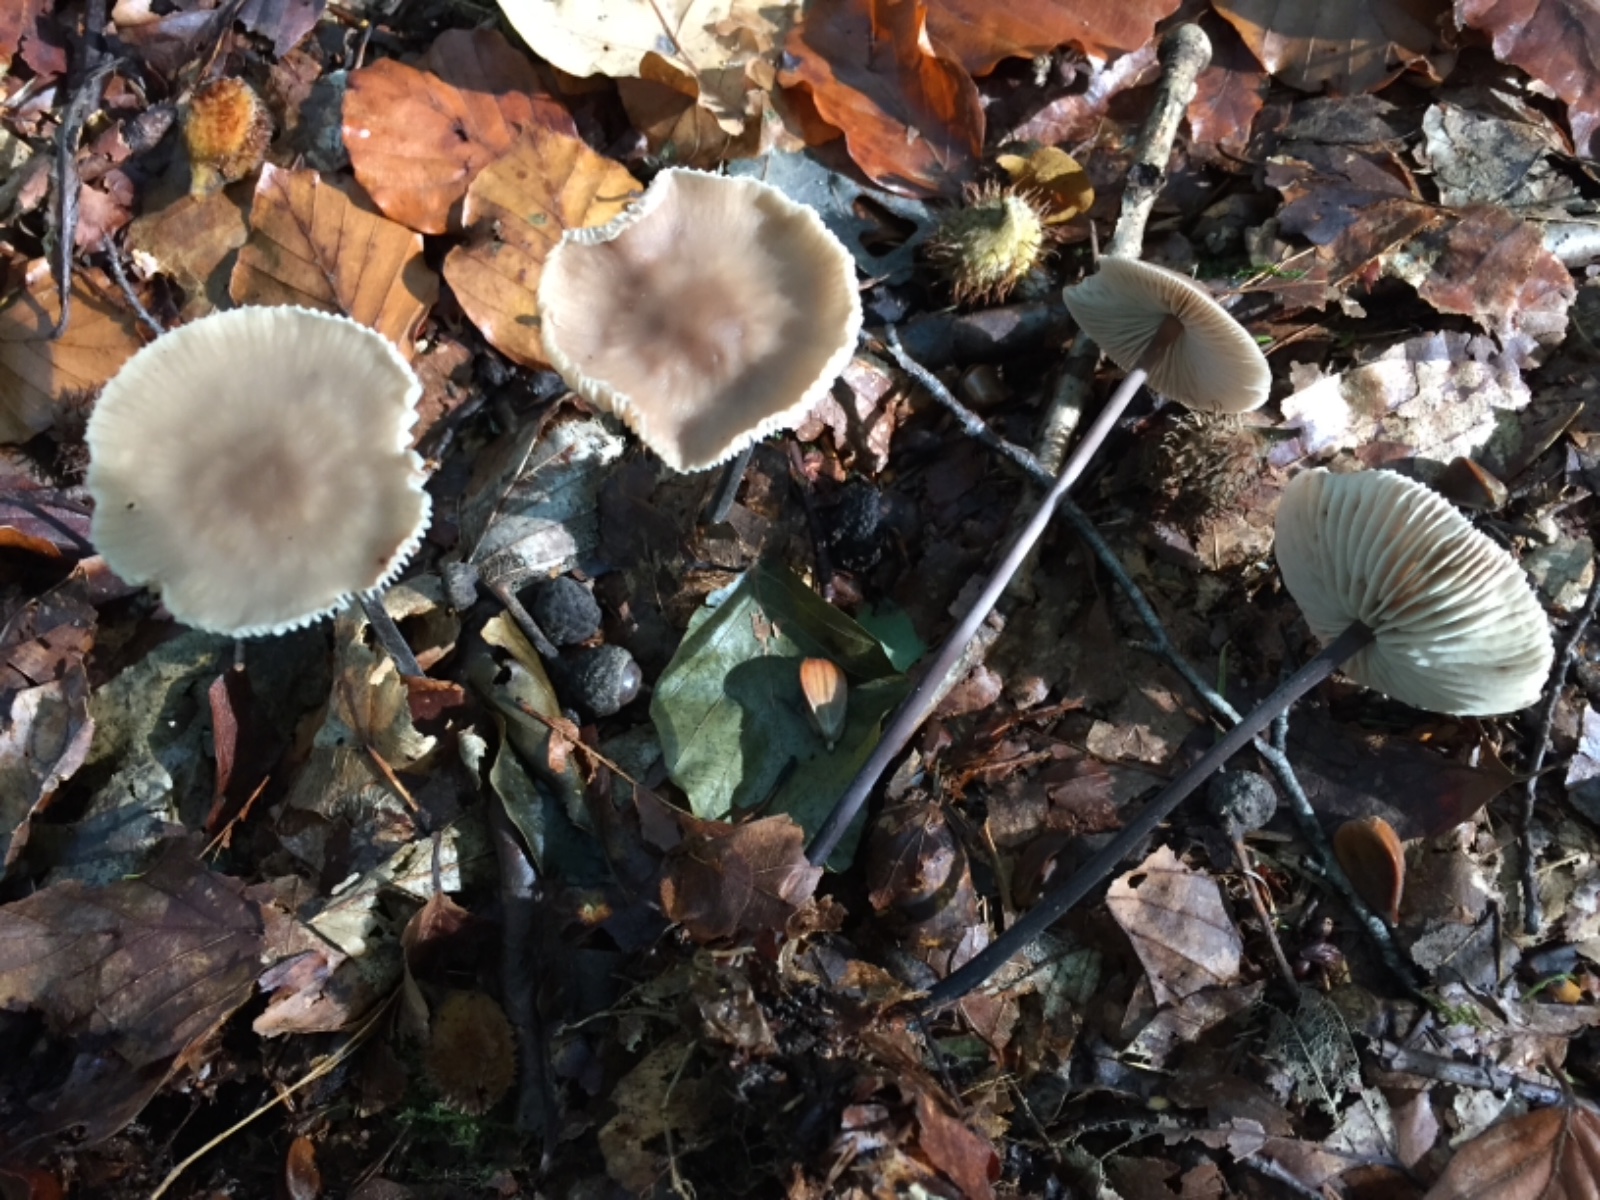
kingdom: Fungi
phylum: Basidiomycota
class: Agaricomycetes
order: Agaricales
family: Omphalotaceae
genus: Mycetinis
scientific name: Mycetinis alliaceus
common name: stor løghat
